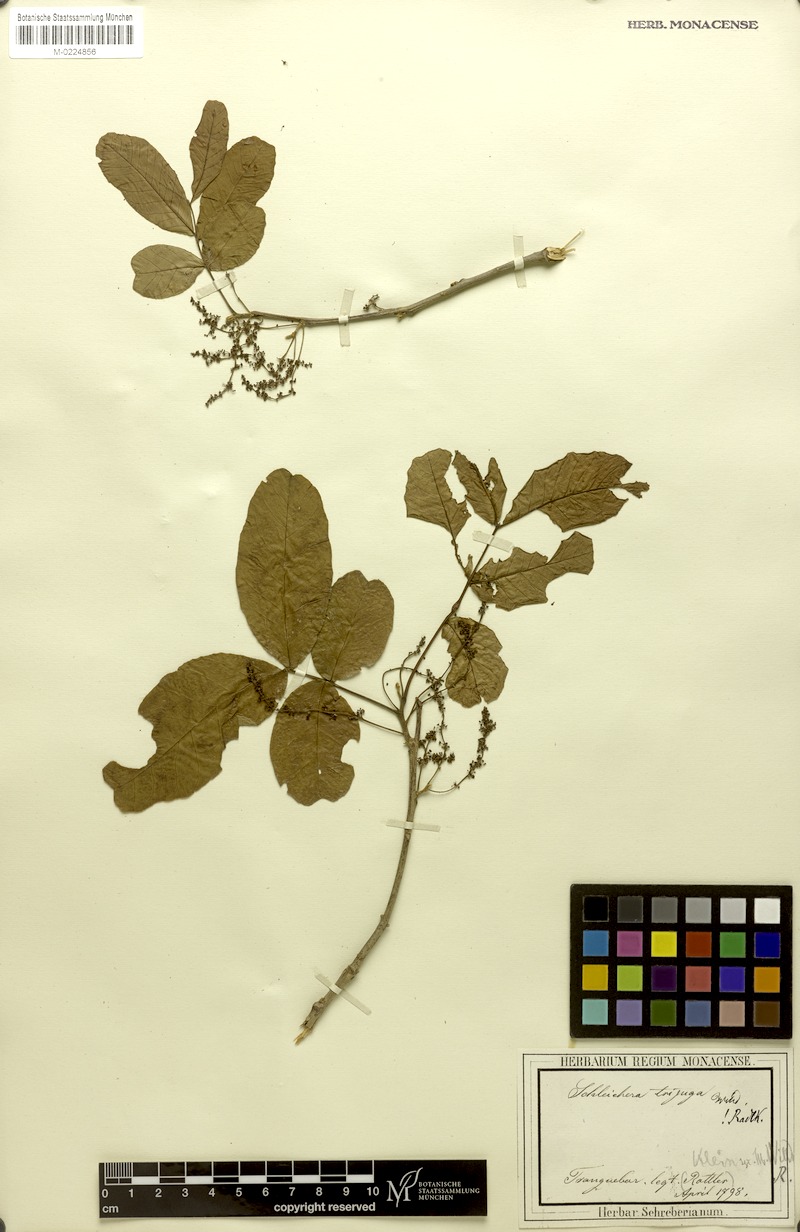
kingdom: Plantae
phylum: Tracheophyta
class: Magnoliopsida
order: Sapindales
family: Sapindaceae
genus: Schleichera
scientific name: Schleichera oleosa
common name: Malay lactree
